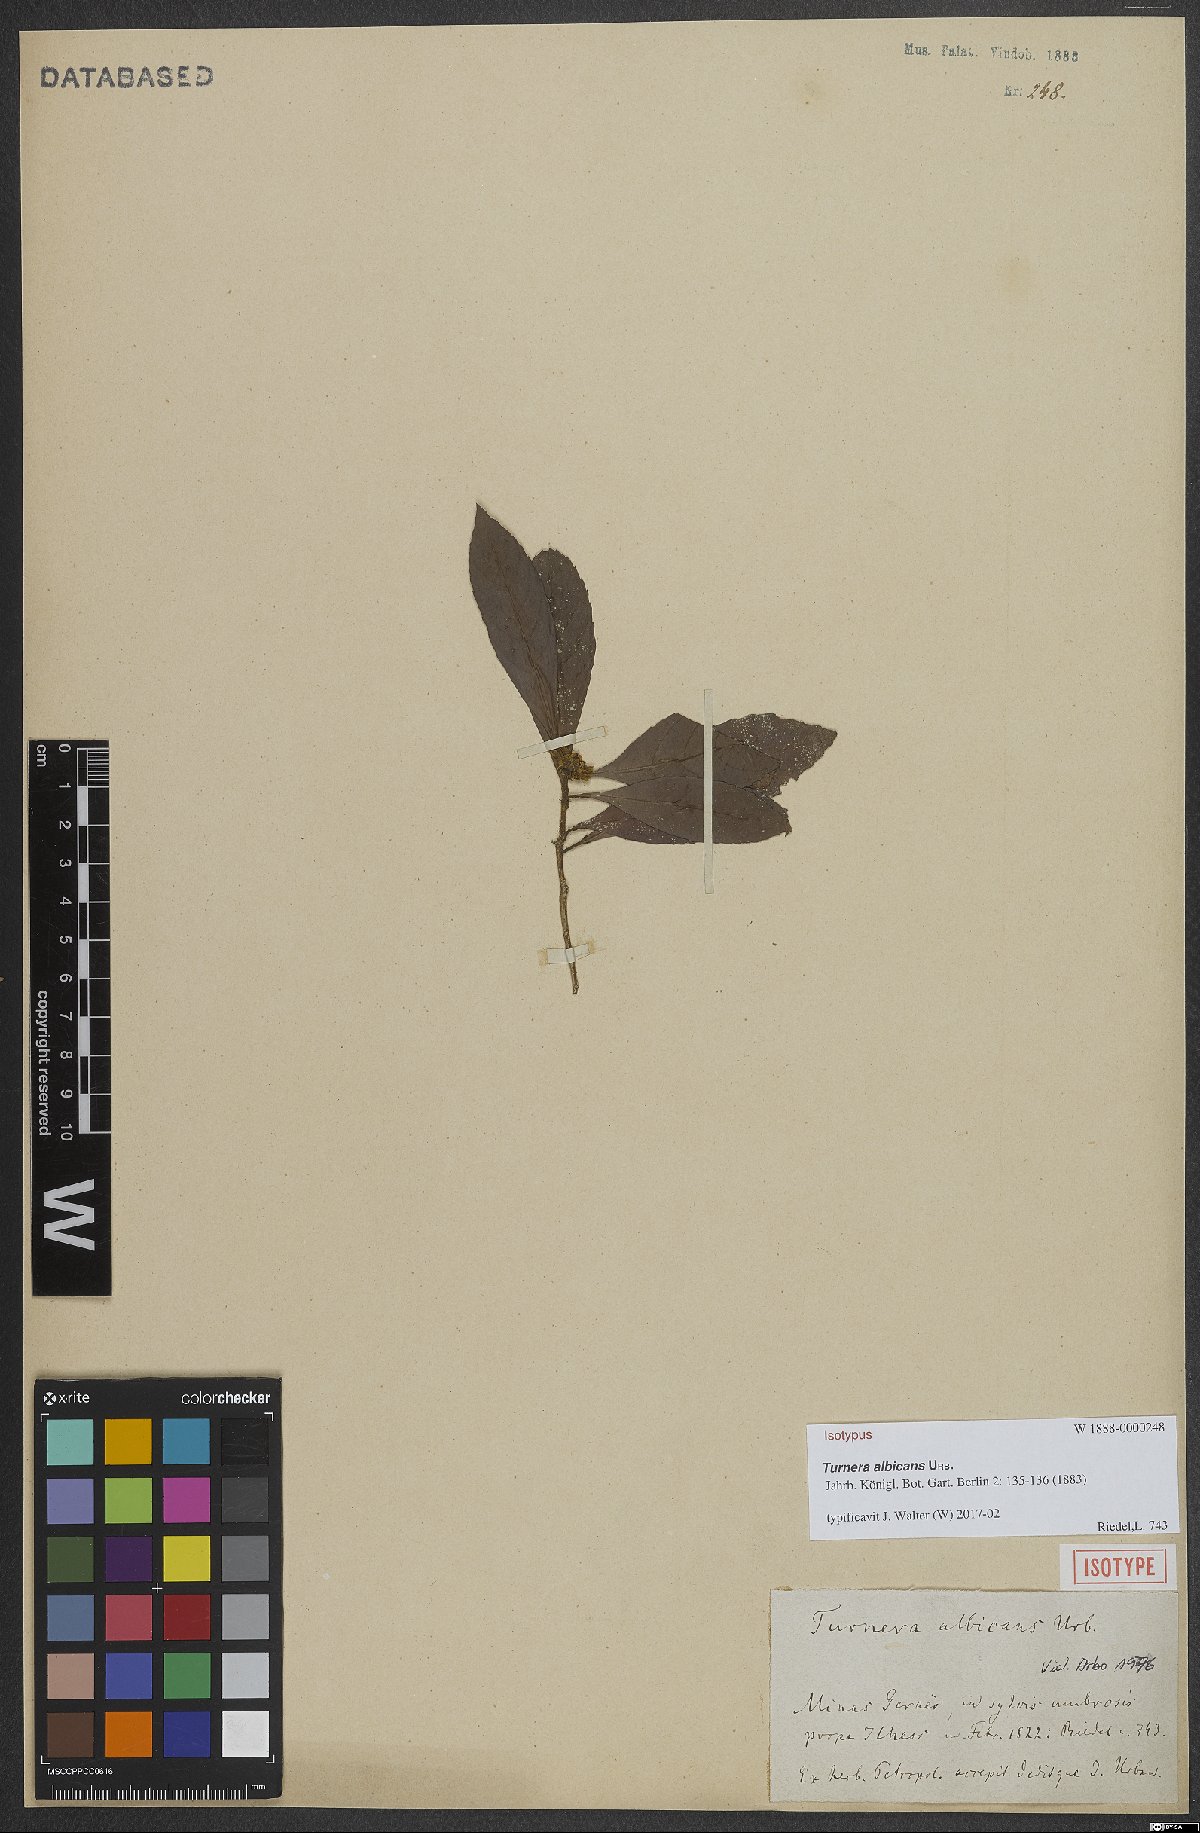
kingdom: Plantae
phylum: Tracheophyta
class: Magnoliopsida
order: Malpighiales
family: Turneraceae
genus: Oxossia
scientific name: Oxossia albicans
